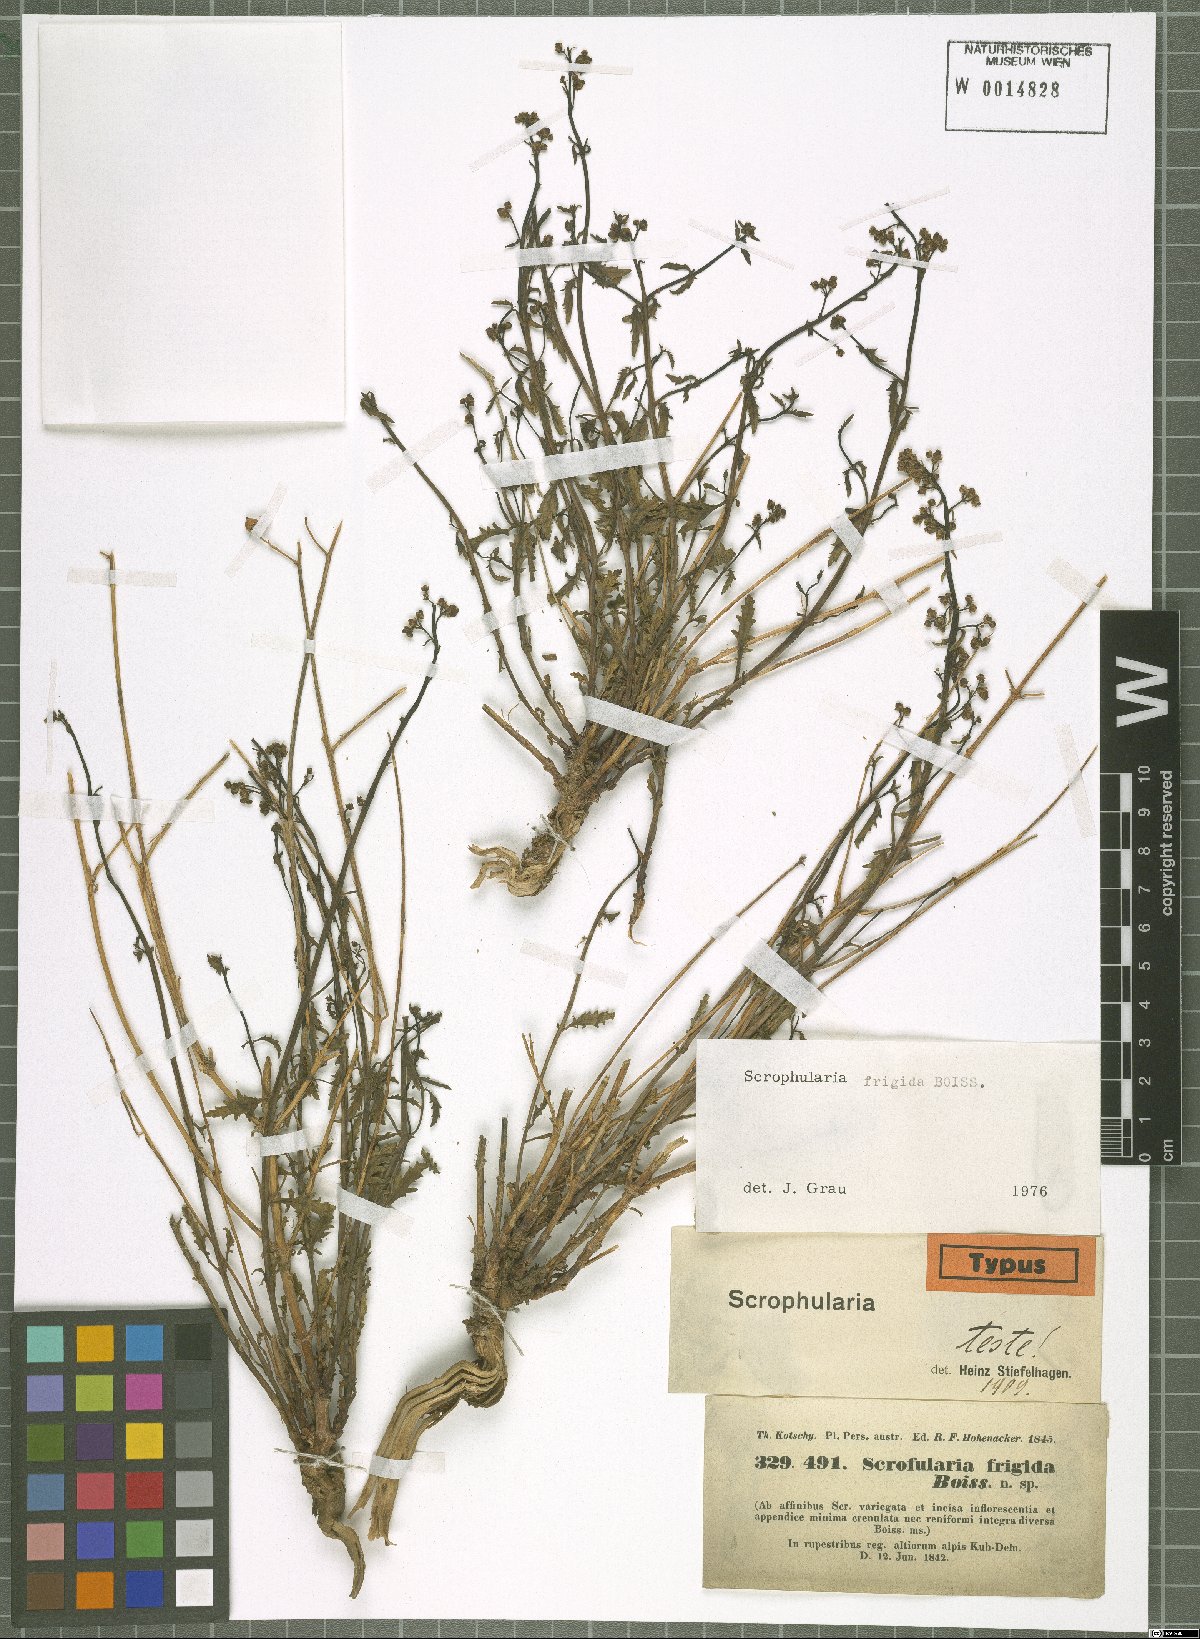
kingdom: Plantae
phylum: Tracheophyta
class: Magnoliopsida
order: Lamiales
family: Scrophulariaceae
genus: Scrophularia
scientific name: Scrophularia frigida
